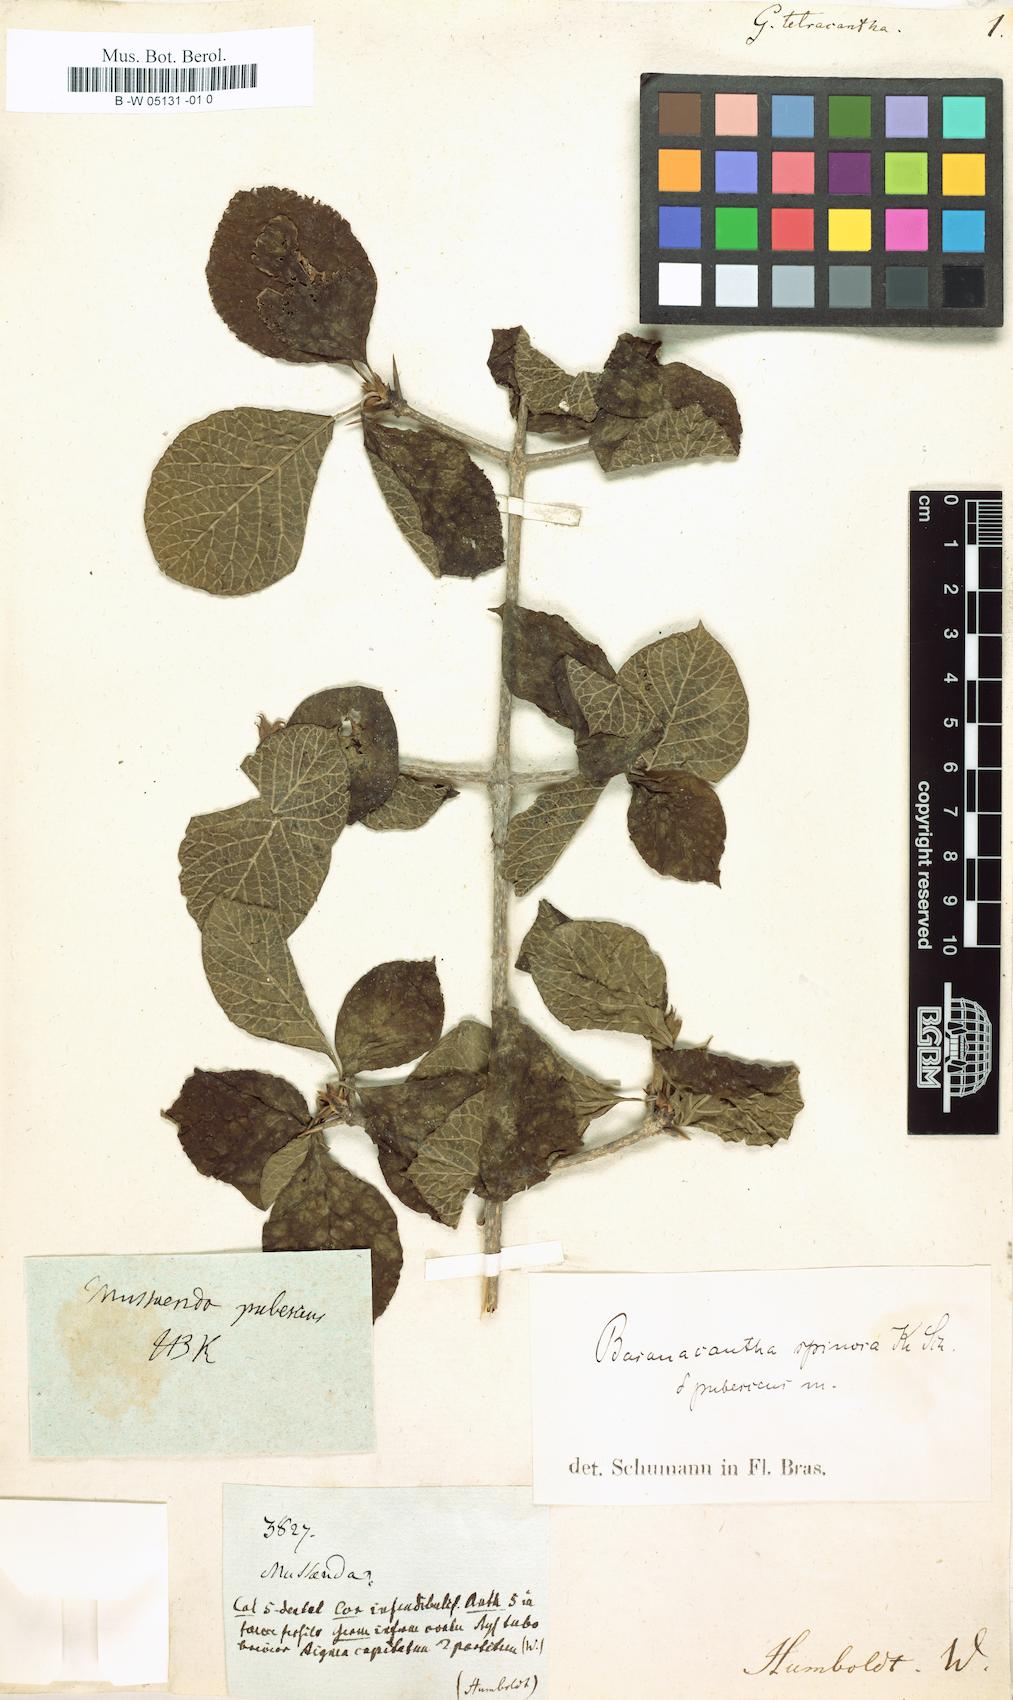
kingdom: Plantae
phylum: Tracheophyta
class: Magnoliopsida
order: Gentianales
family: Rubiaceae
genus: Randia
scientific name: Randia
